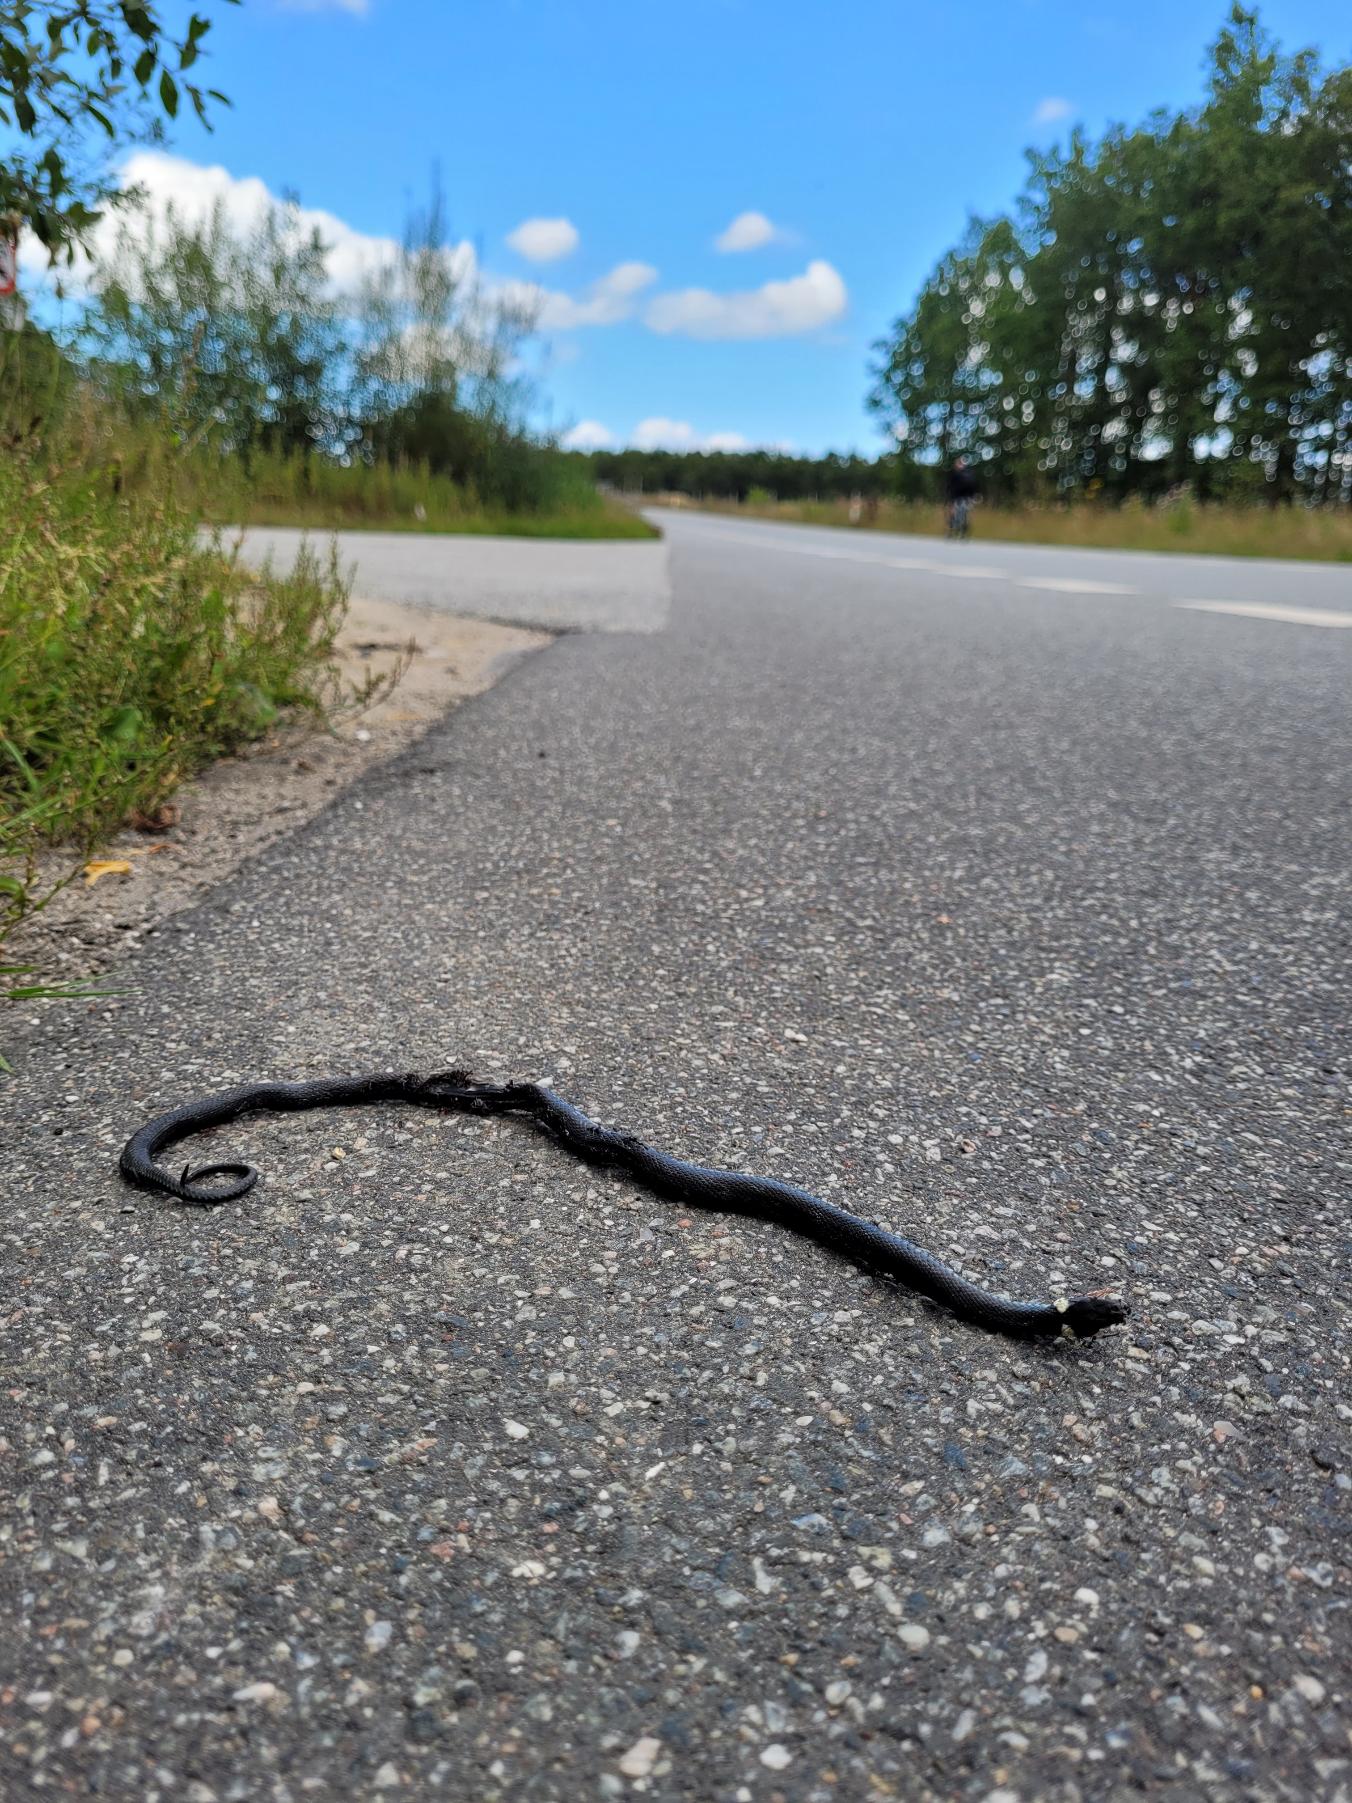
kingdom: Animalia
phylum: Chordata
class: Squamata
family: Colubridae
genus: Natrix
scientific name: Natrix natrix
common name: Snog
